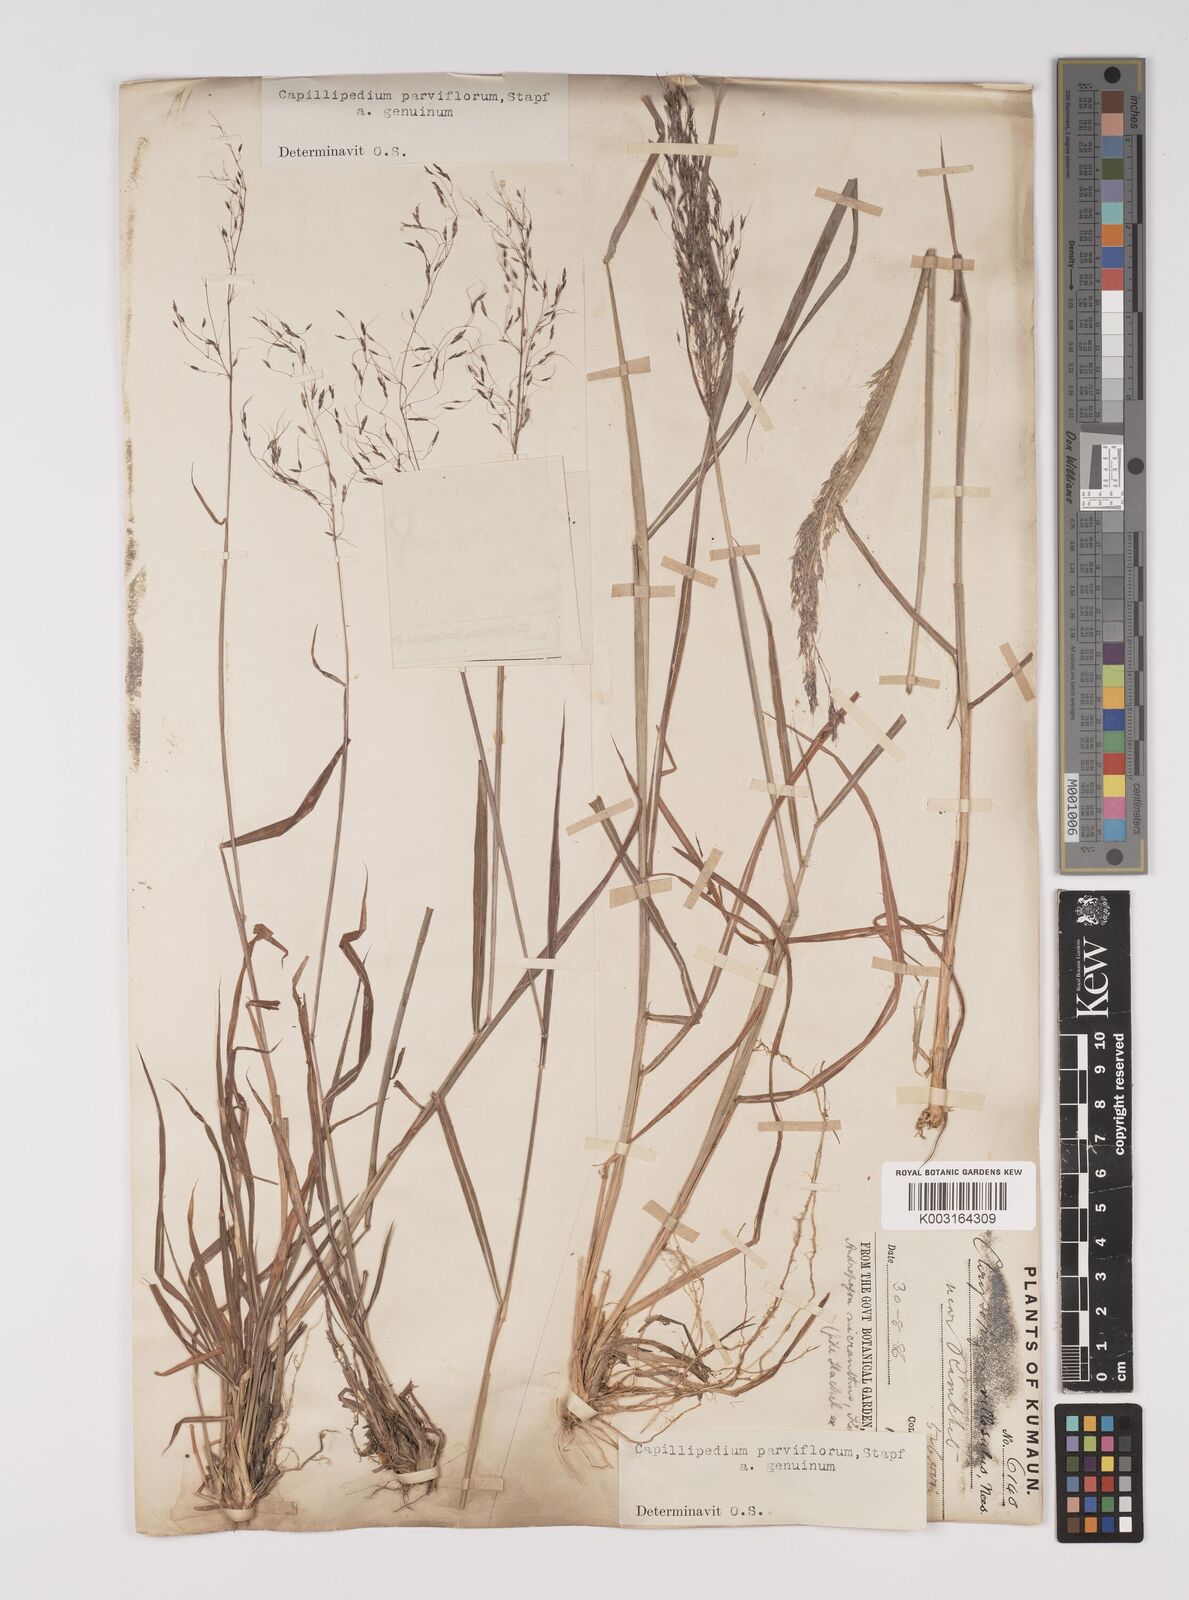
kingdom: Plantae
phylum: Tracheophyta
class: Liliopsida
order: Poales
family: Poaceae
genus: Capillipedium
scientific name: Capillipedium parviflorum
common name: Golden-beard
